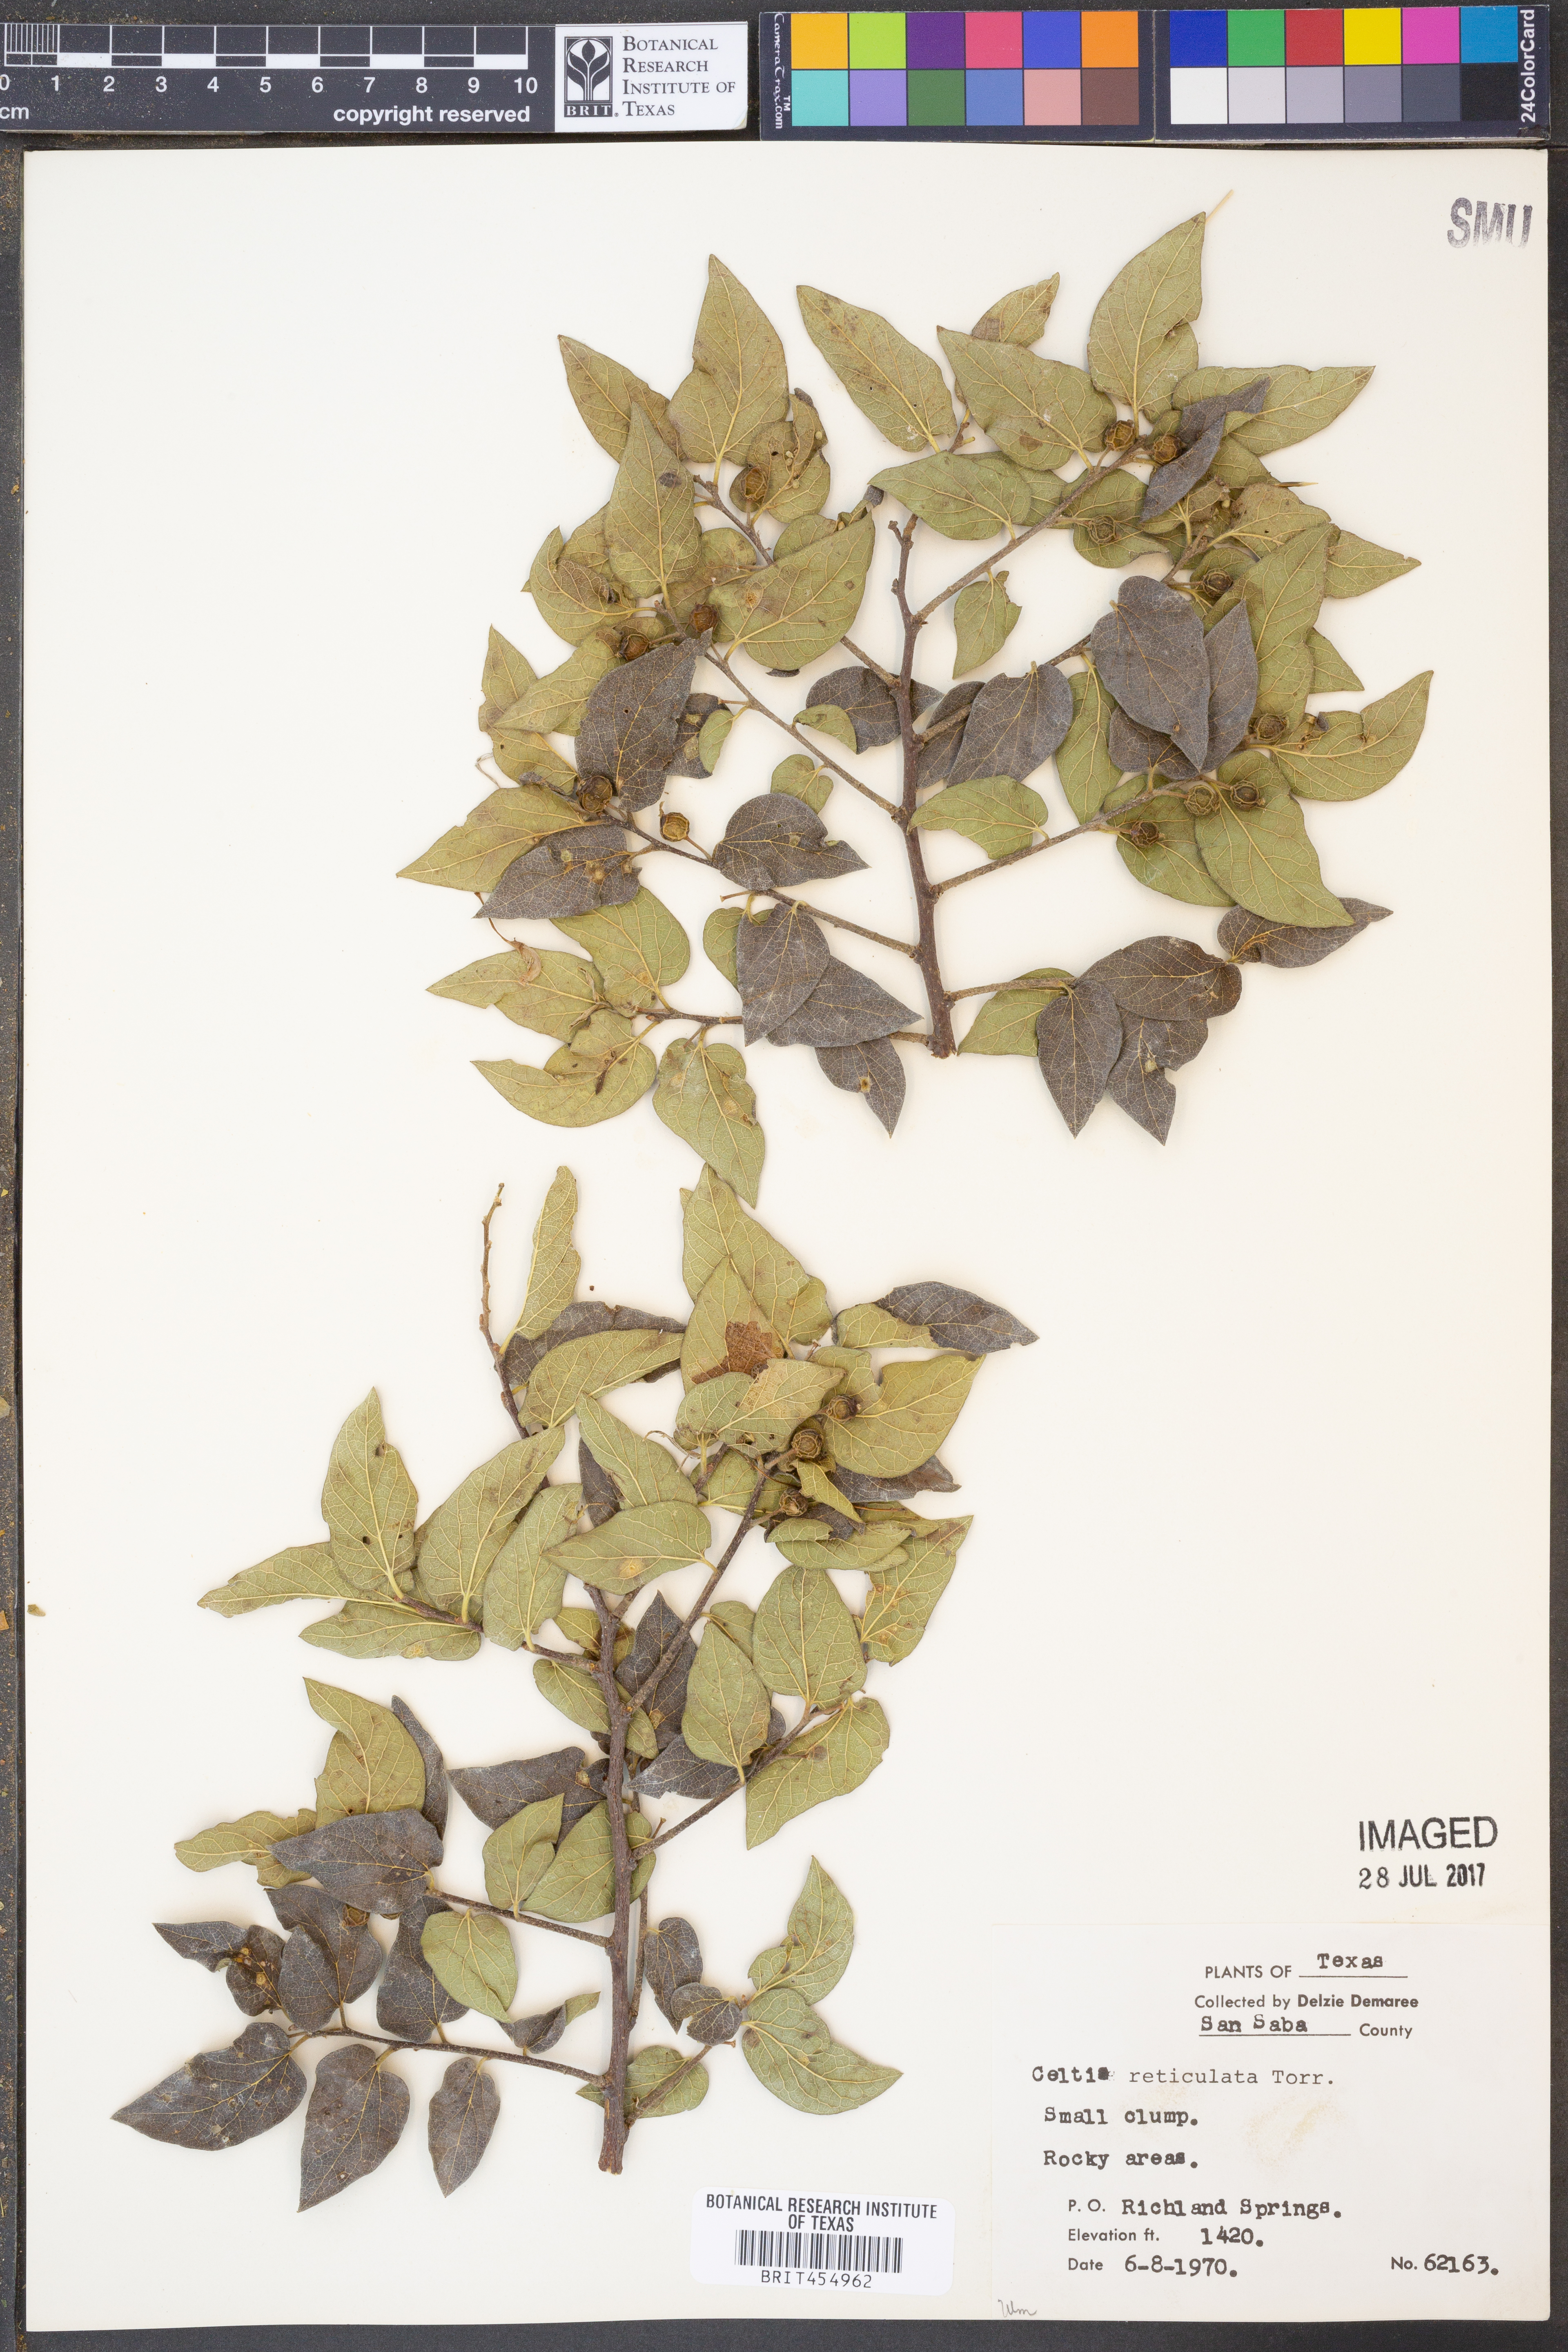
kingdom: Plantae
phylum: Tracheophyta
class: Magnoliopsida
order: Rosales
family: Cannabaceae
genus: Celtis
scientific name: Celtis reticulata
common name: Netleaf hackberry
